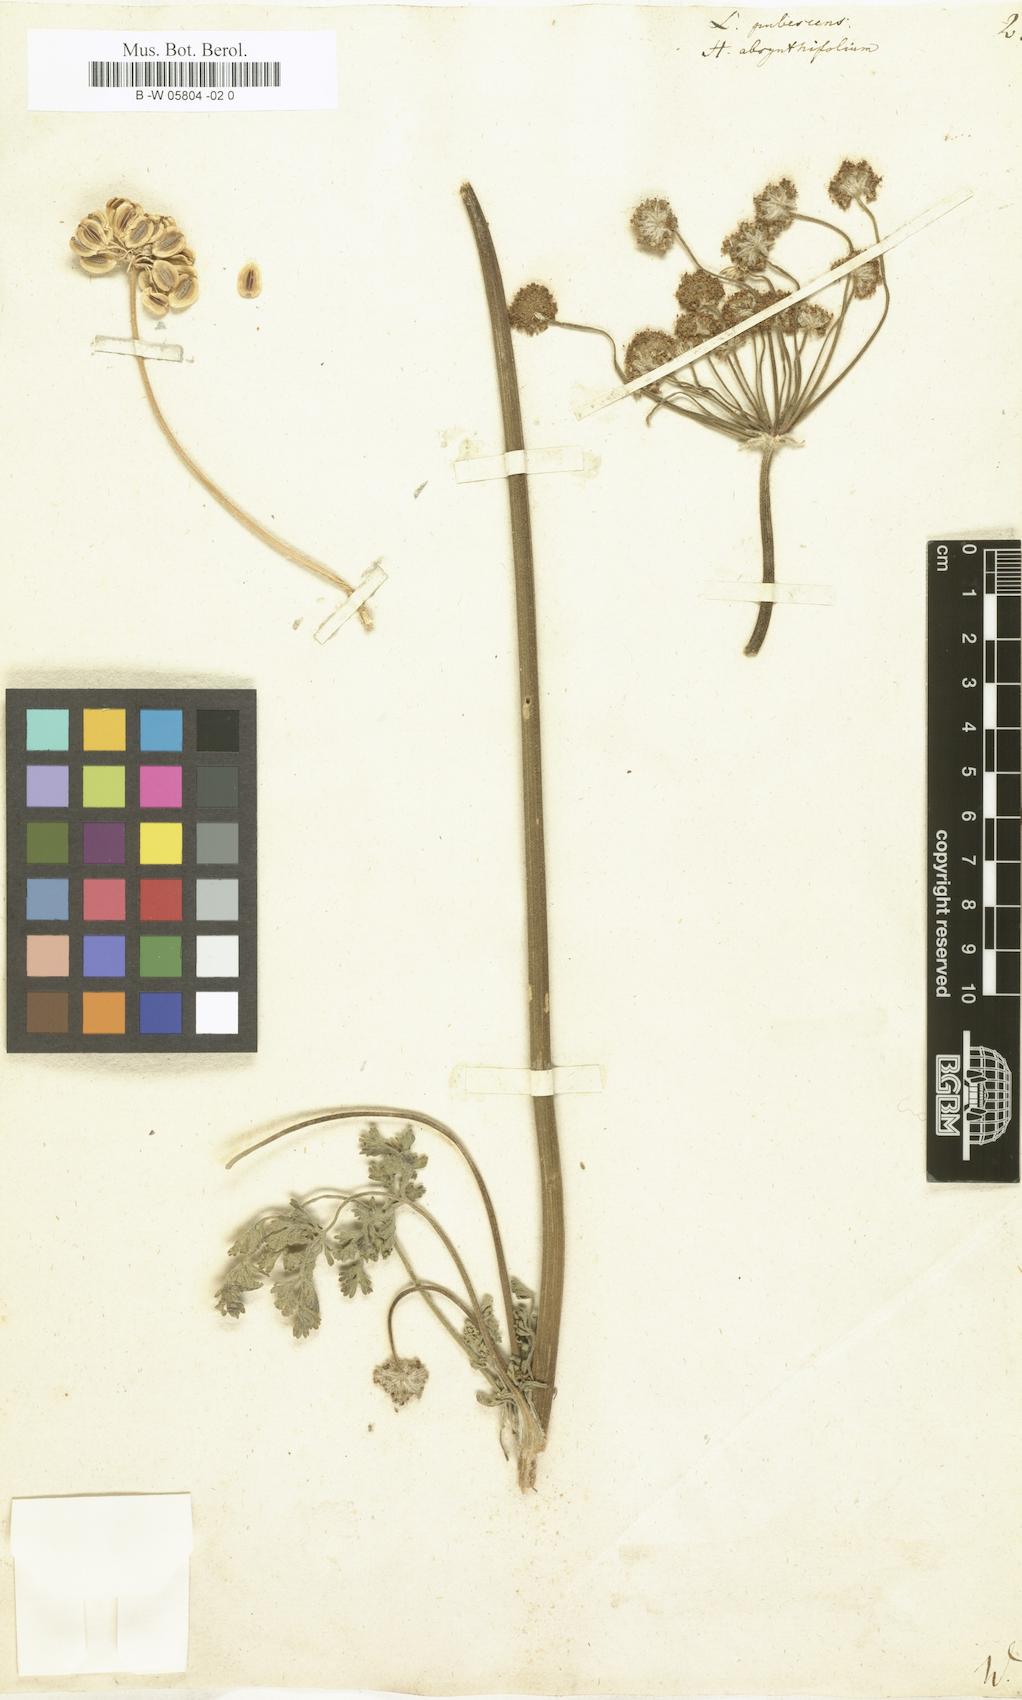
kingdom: Plantae
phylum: Tracheophyta
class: Magnoliopsida
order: Apiales
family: Apiaceae
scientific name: Apiaceae
